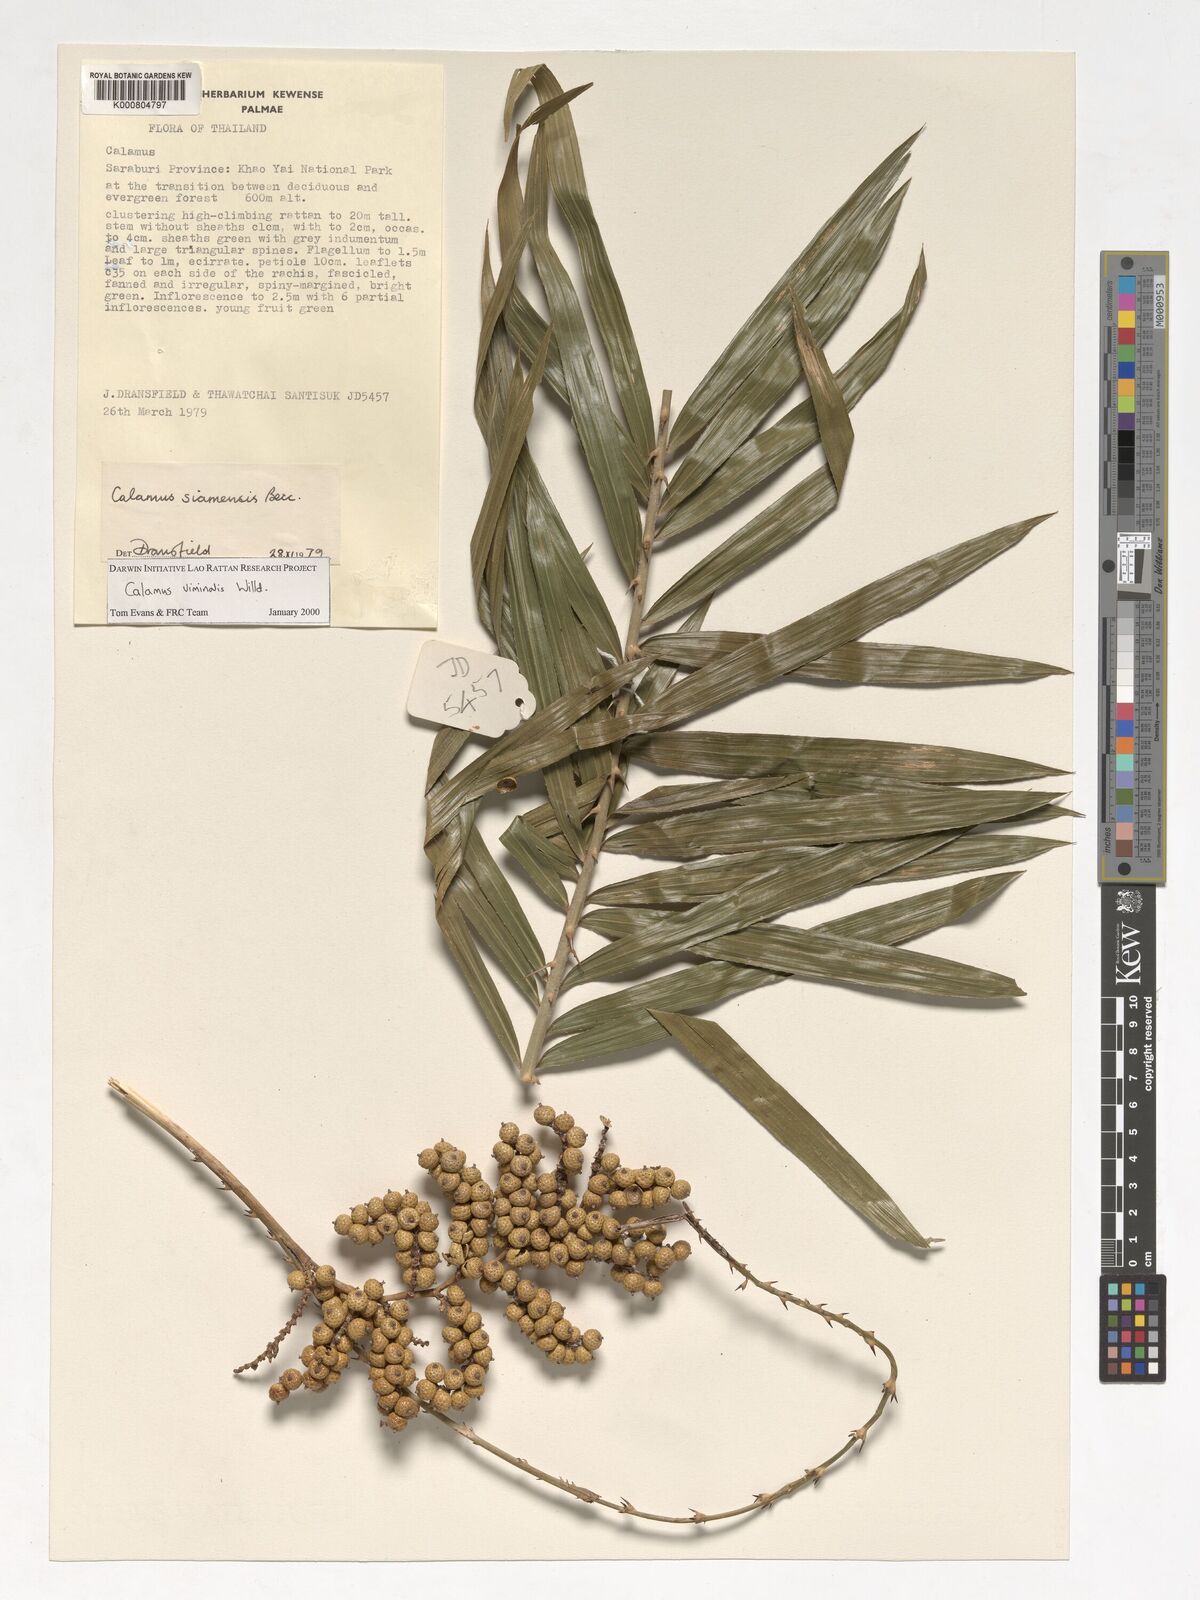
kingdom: Plantae
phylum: Tracheophyta
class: Liliopsida
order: Arecales
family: Arecaceae
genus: Calamus
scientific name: Calamus viminalis
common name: Osier-like rattan palm
